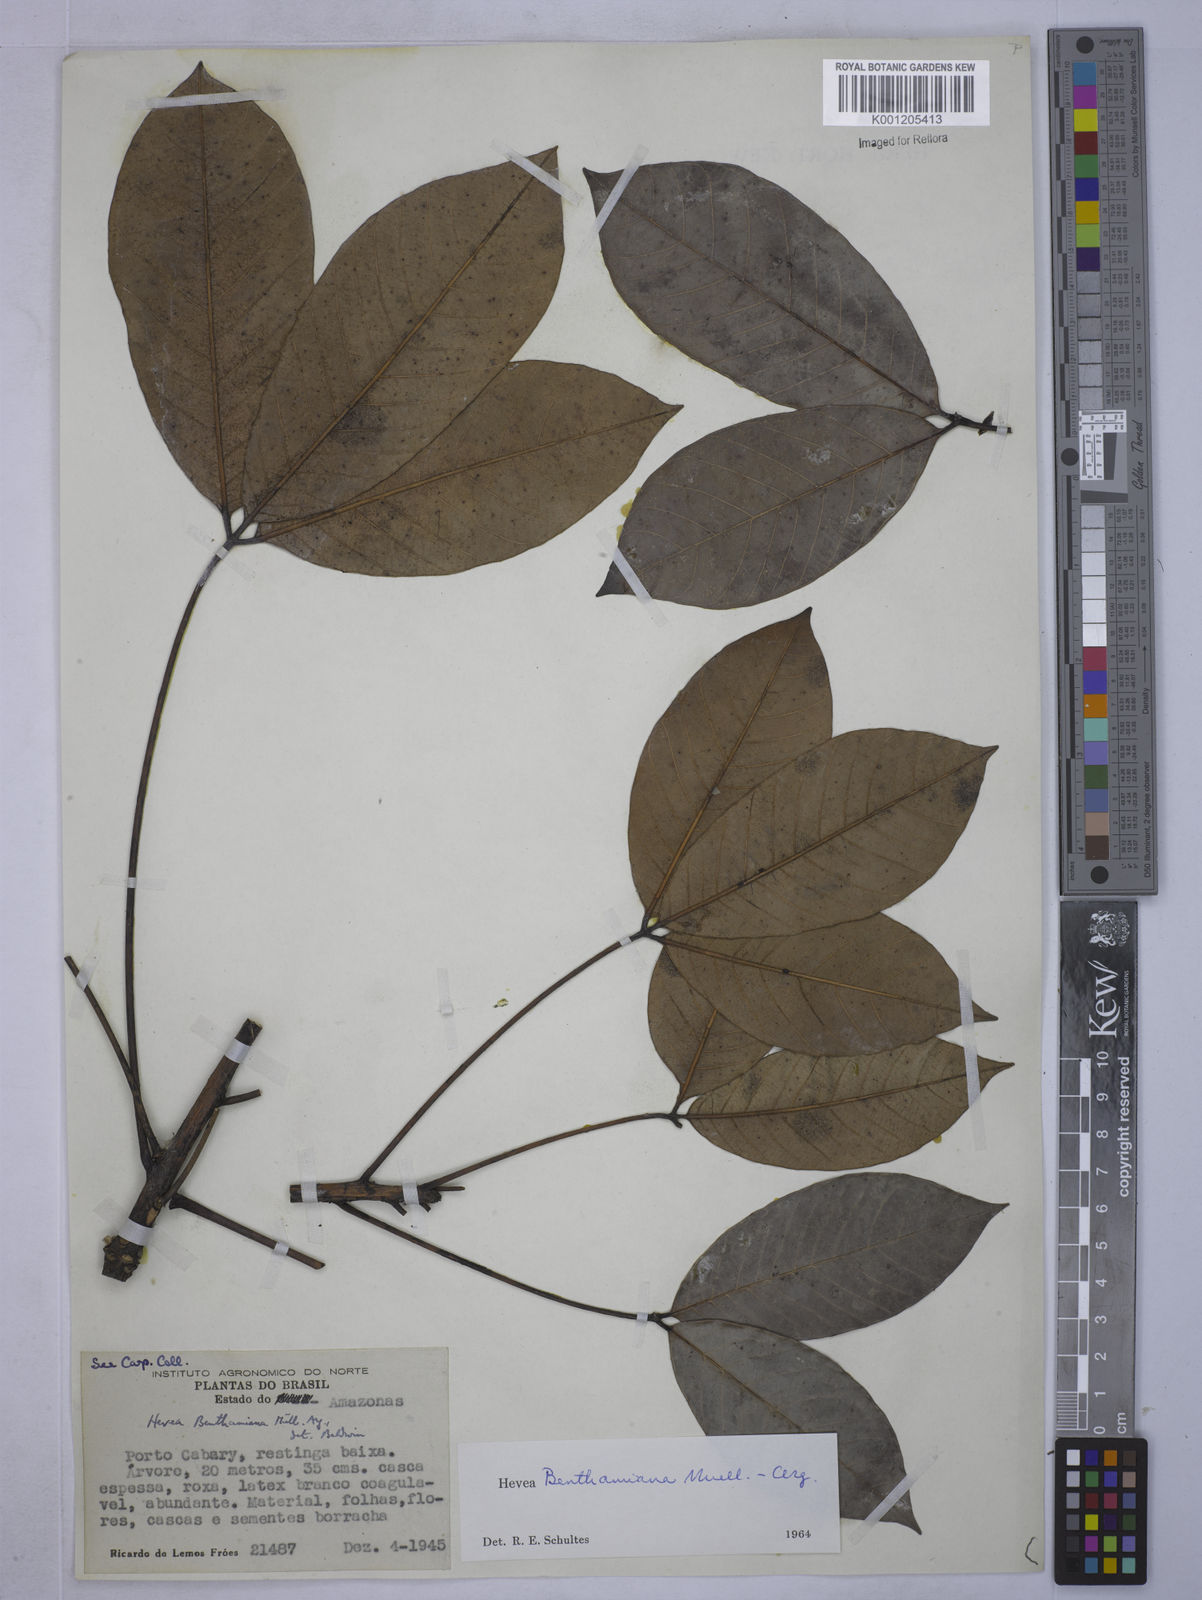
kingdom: Plantae
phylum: Tracheophyta
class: Magnoliopsida
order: Malpighiales
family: Euphorbiaceae
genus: Hevea
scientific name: Hevea
